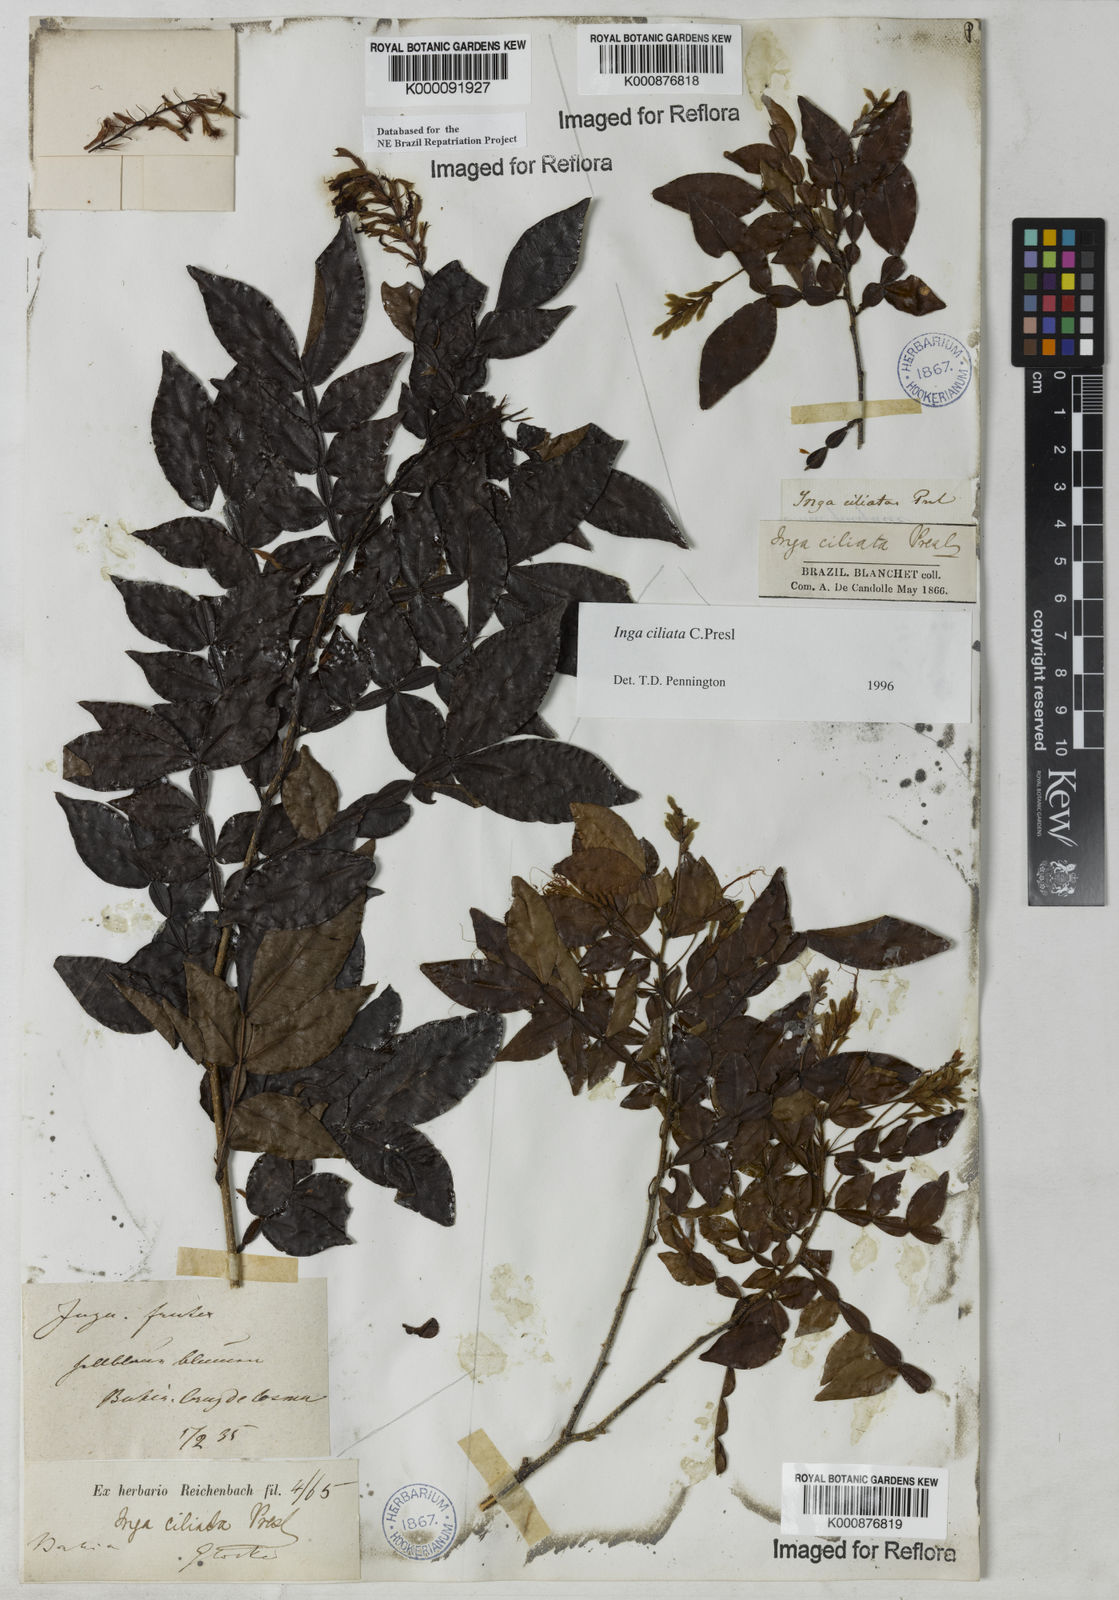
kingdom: Plantae
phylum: Tracheophyta
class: Magnoliopsida
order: Fabales
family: Fabaceae
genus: Inga
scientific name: Inga ciliata
